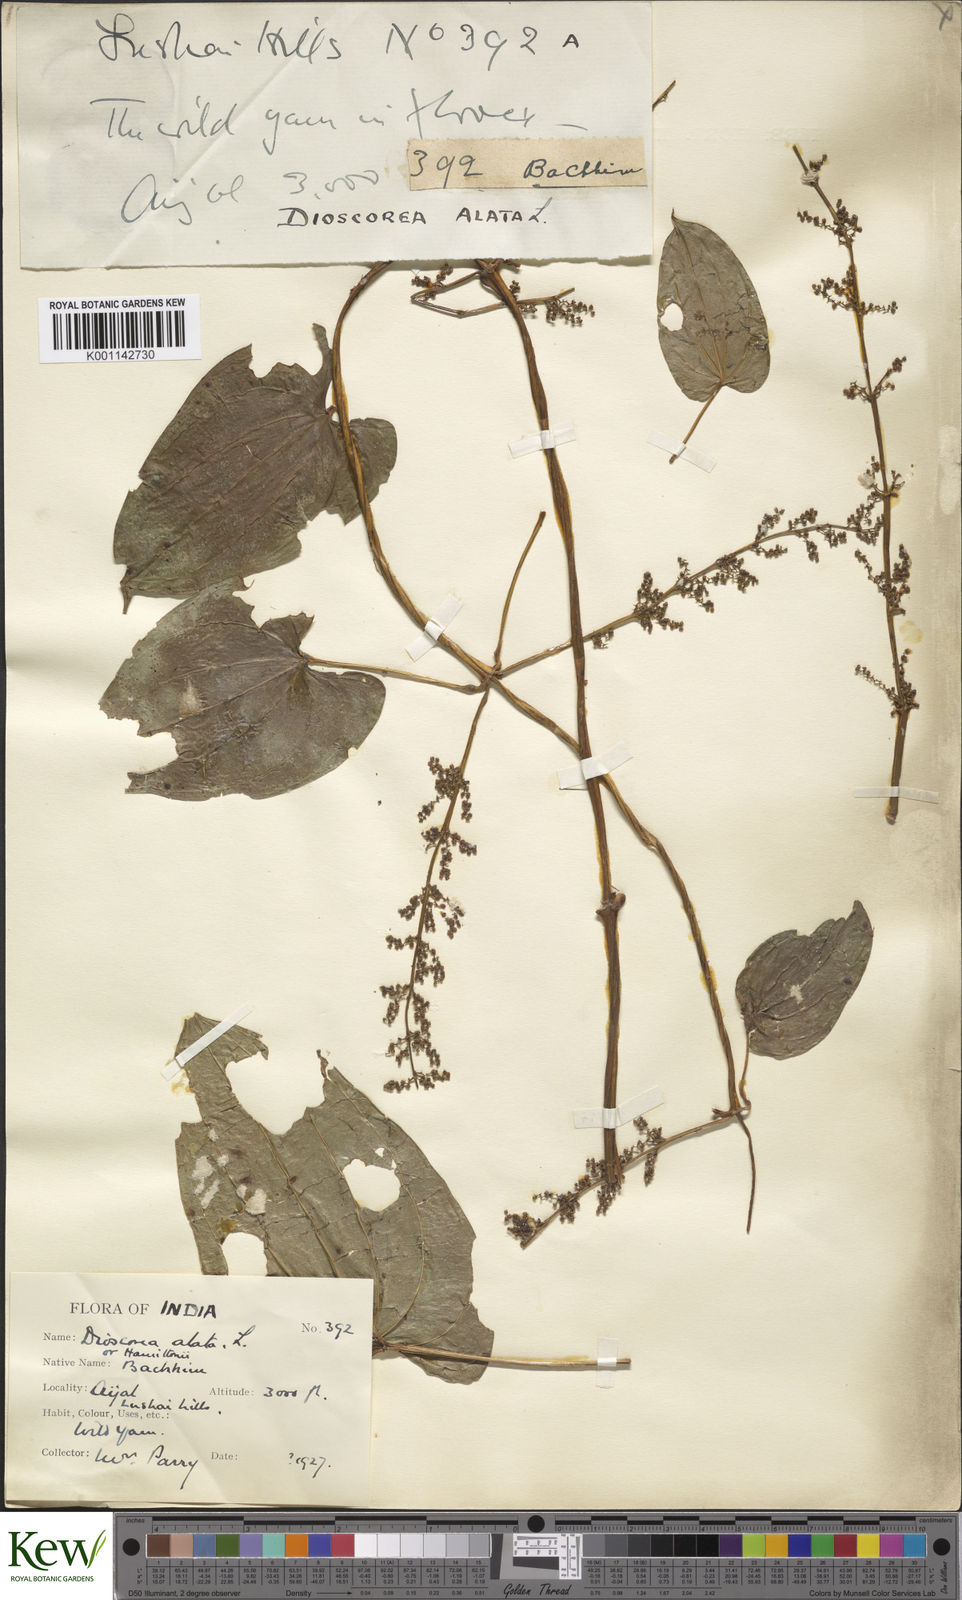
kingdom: Plantae
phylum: Tracheophyta
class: Liliopsida
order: Dioscoreales
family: Dioscoreaceae
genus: Dioscorea
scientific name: Dioscorea alata
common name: Water yam
